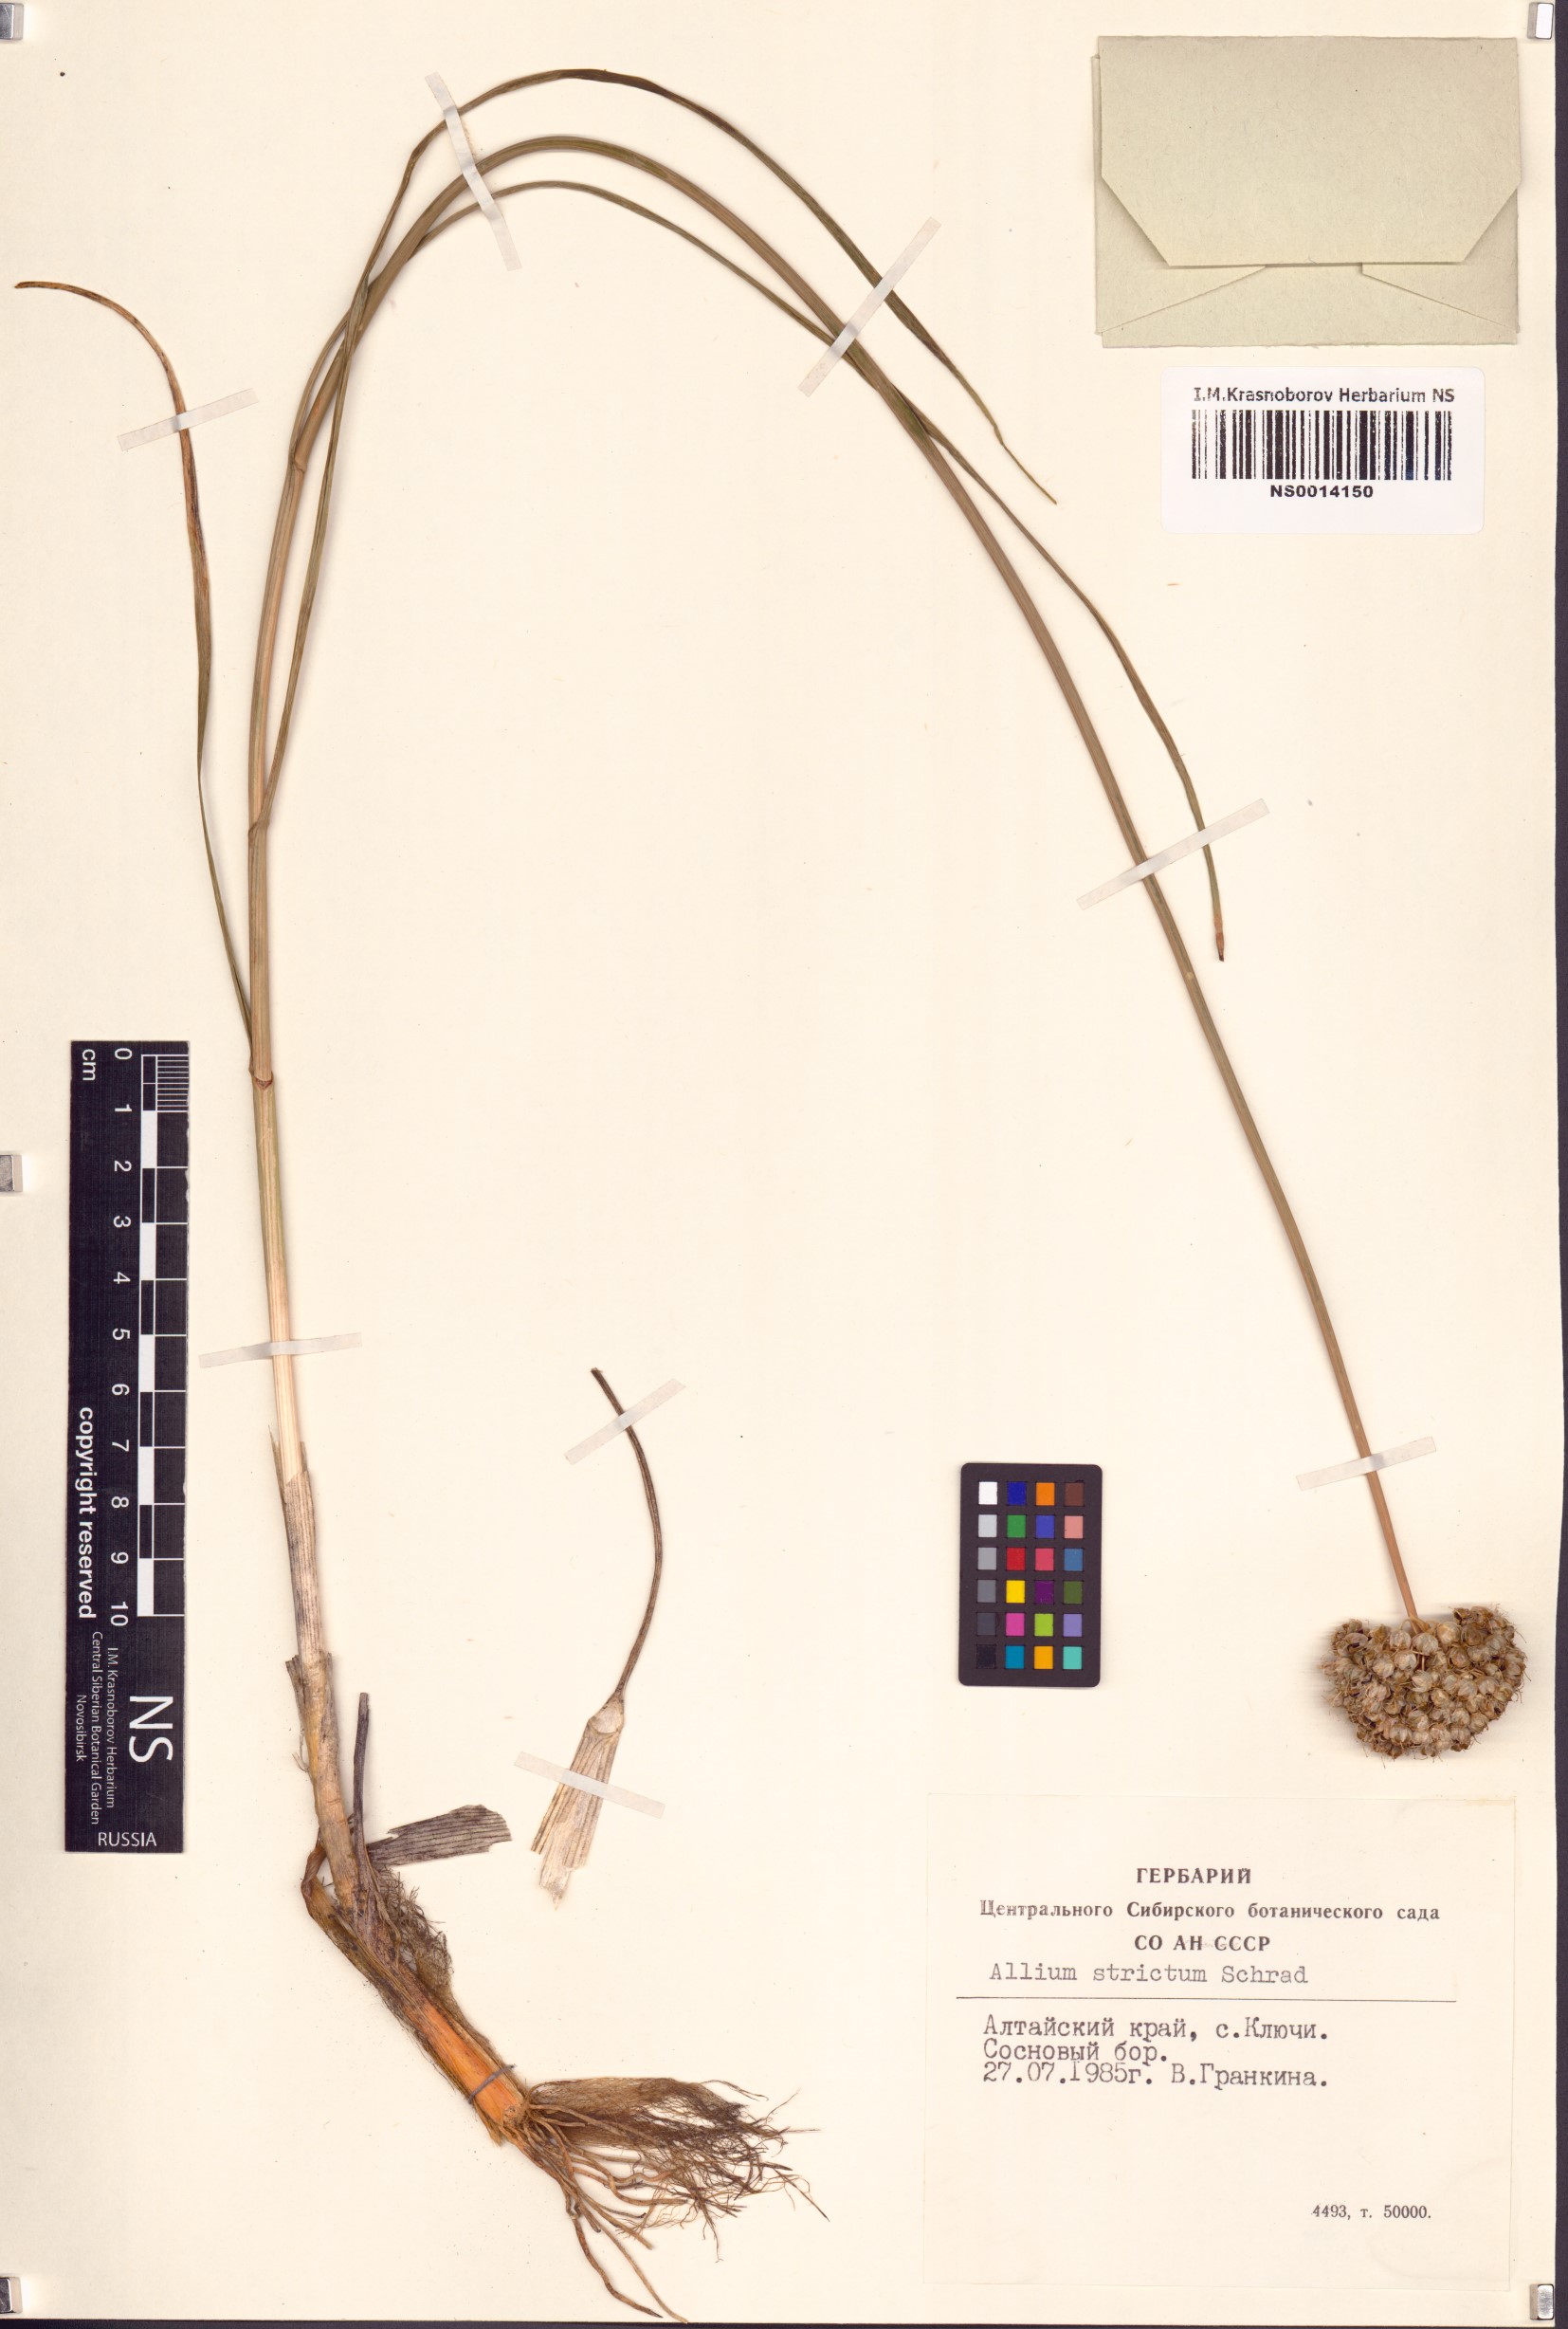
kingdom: Plantae
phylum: Tracheophyta
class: Liliopsida
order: Asparagales
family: Amaryllidaceae
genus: Allium
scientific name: Allium strictum
